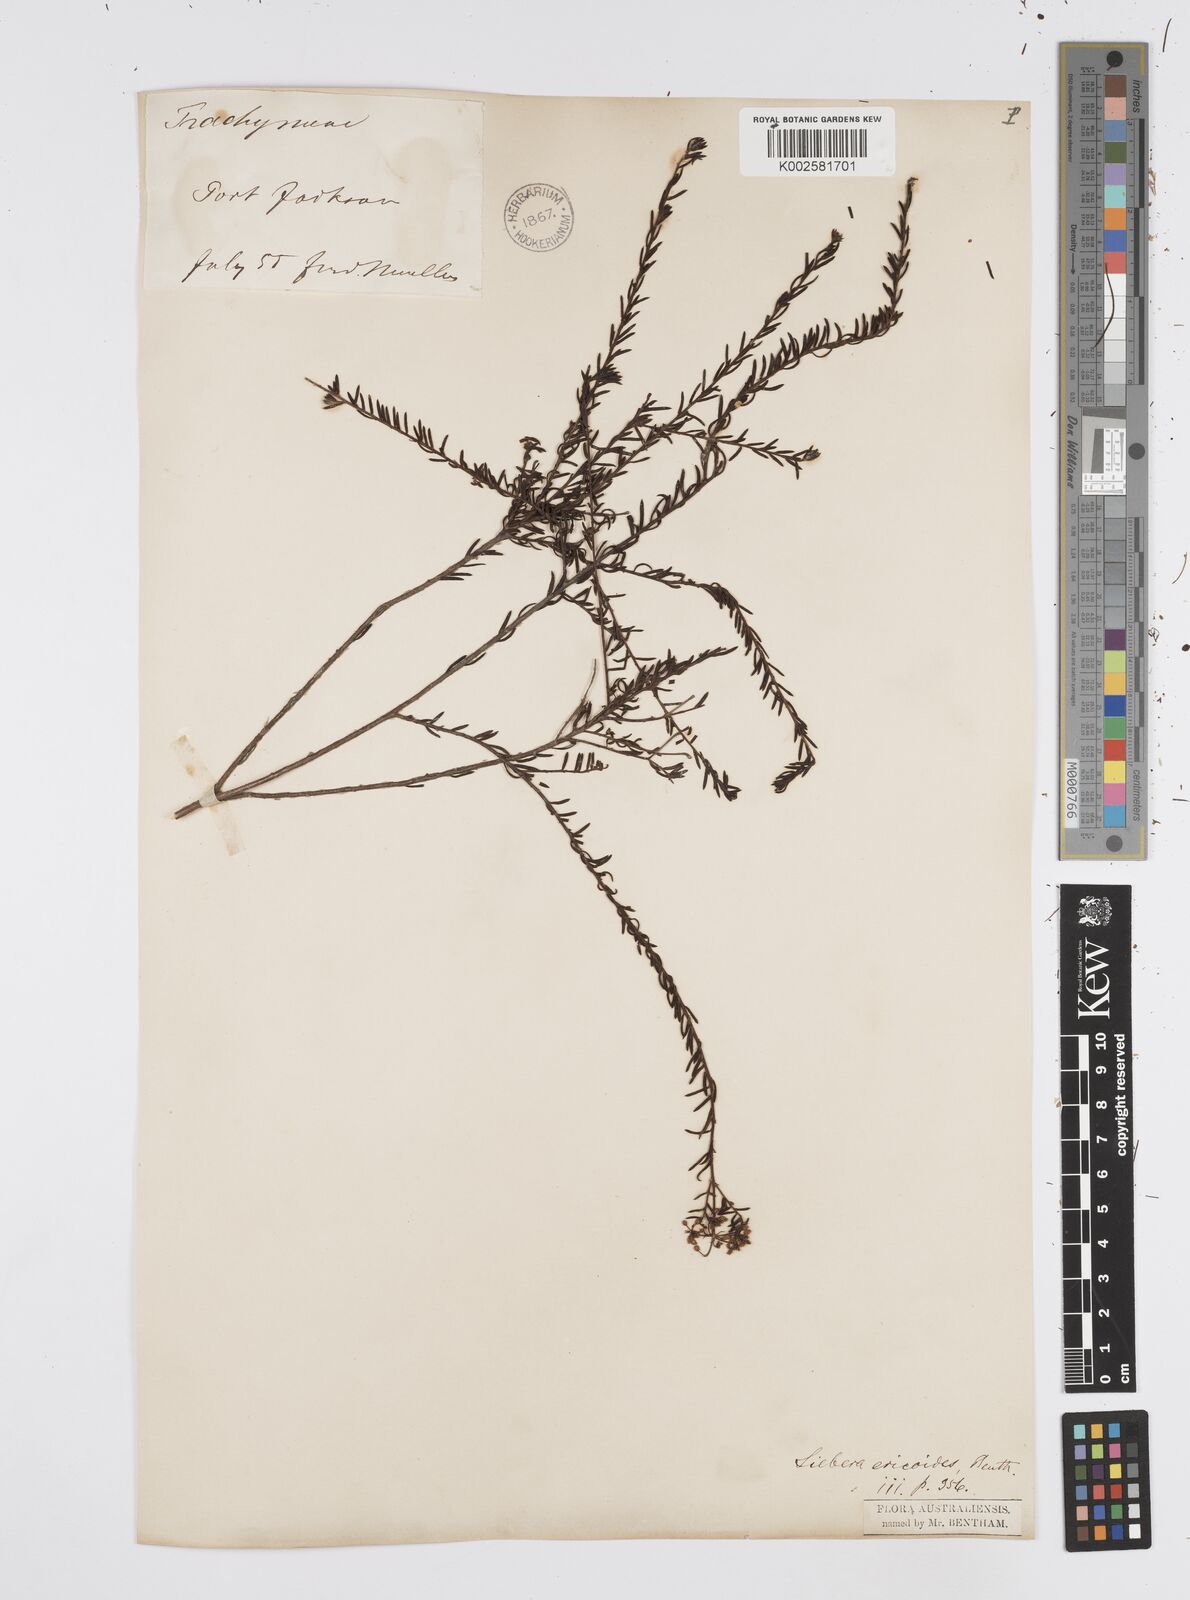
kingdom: Plantae
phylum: Tracheophyta
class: Magnoliopsida
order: Apiales
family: Apiaceae
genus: Platysace
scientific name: Platysace ericoides
